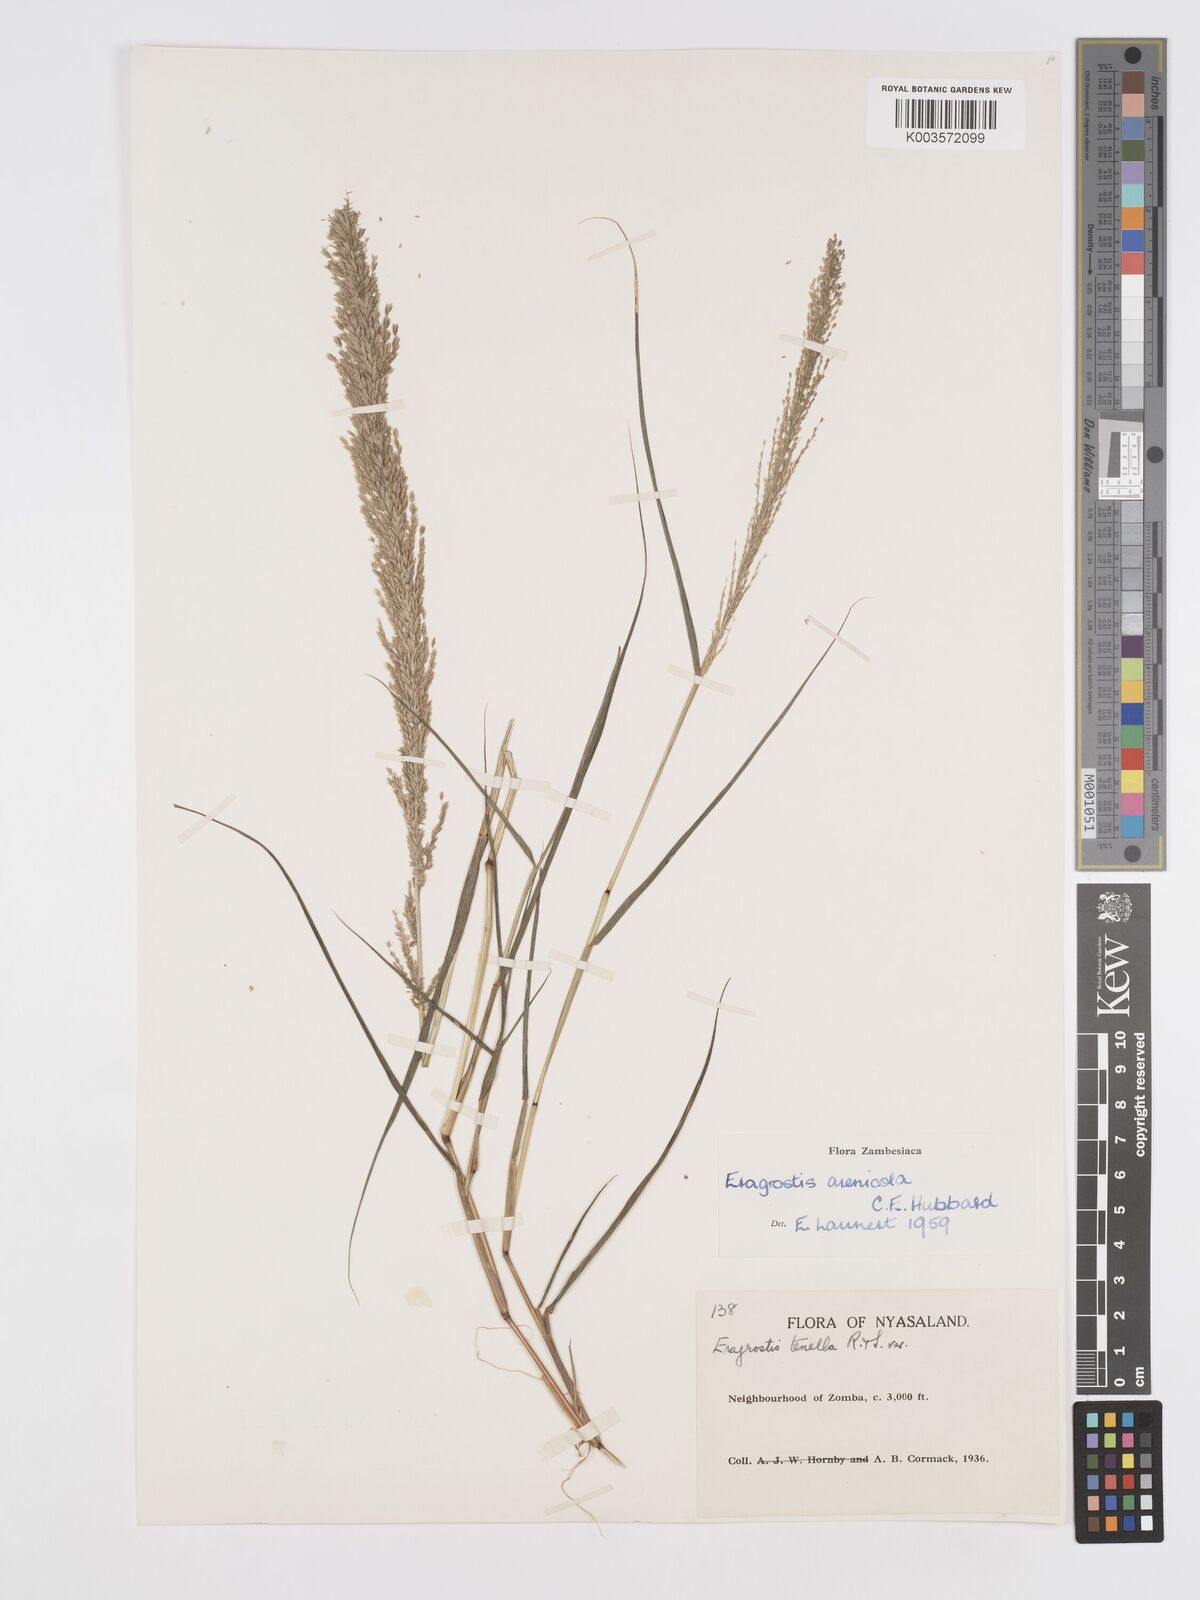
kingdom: Plantae
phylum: Tracheophyta
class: Liliopsida
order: Poales
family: Poaceae
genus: Eragrostis
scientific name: Eragrostis arenicola
